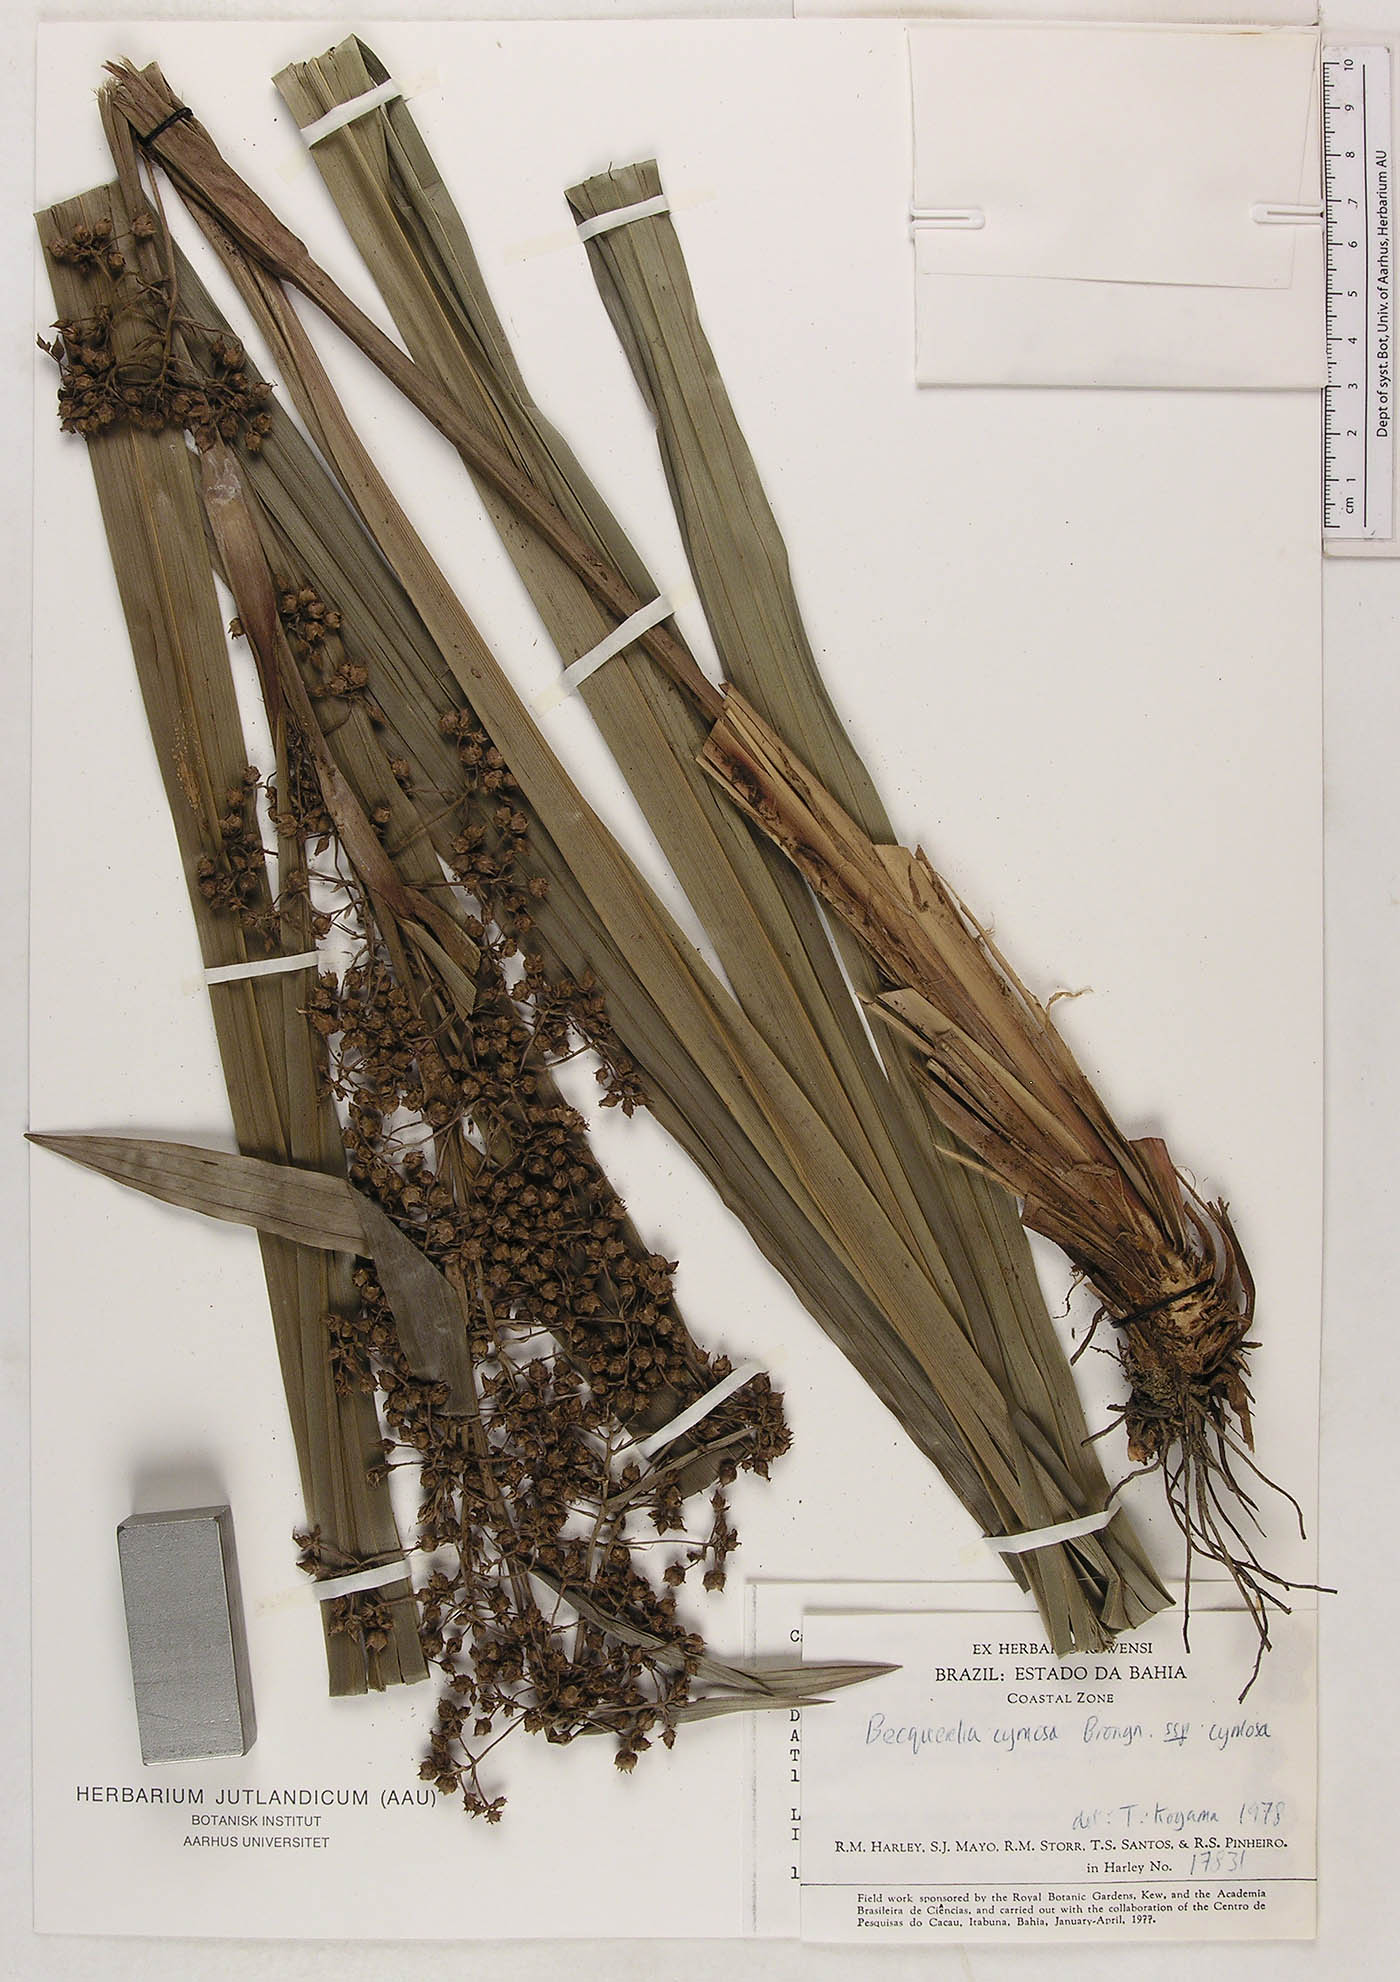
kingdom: Plantae
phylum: Tracheophyta
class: Liliopsida
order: Poales
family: Cyperaceae
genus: Becquerelia
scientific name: Becquerelia cymosa
